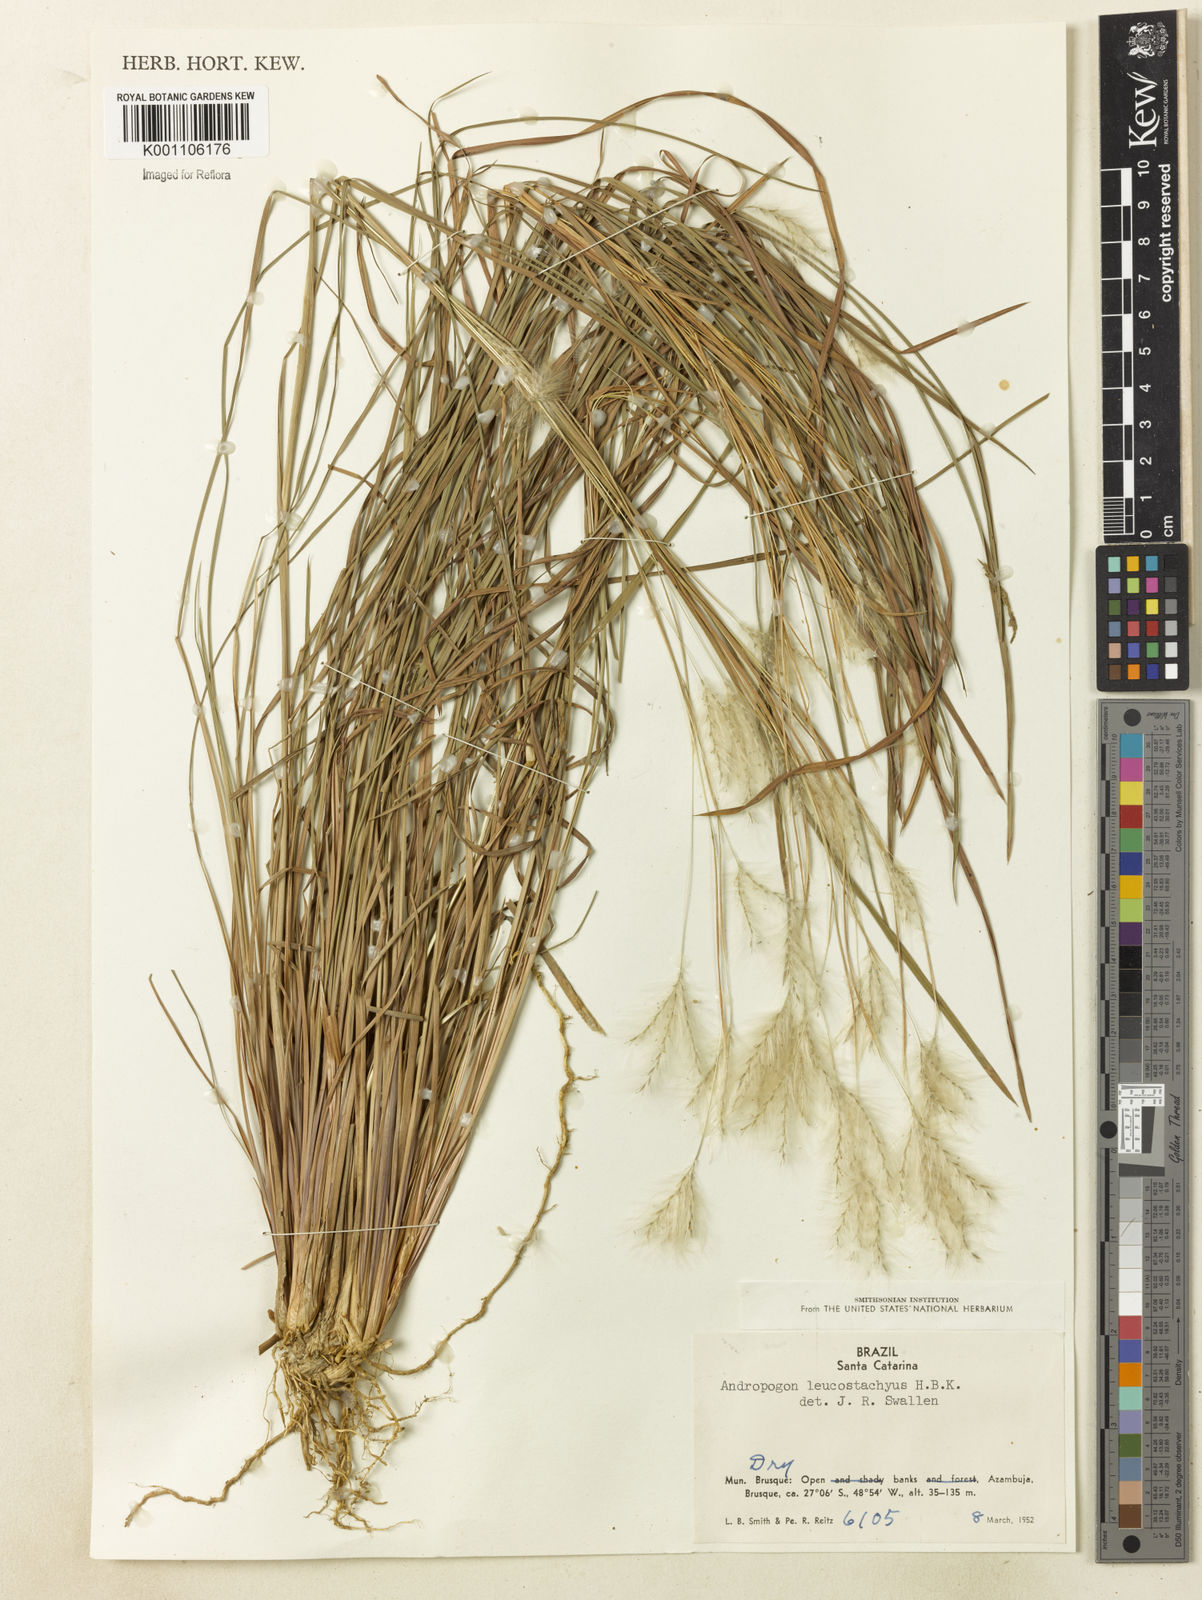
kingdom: Plantae
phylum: Tracheophyta
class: Liliopsida
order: Poales
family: Poaceae
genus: Andropogon
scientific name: Andropogon leucostachyus
